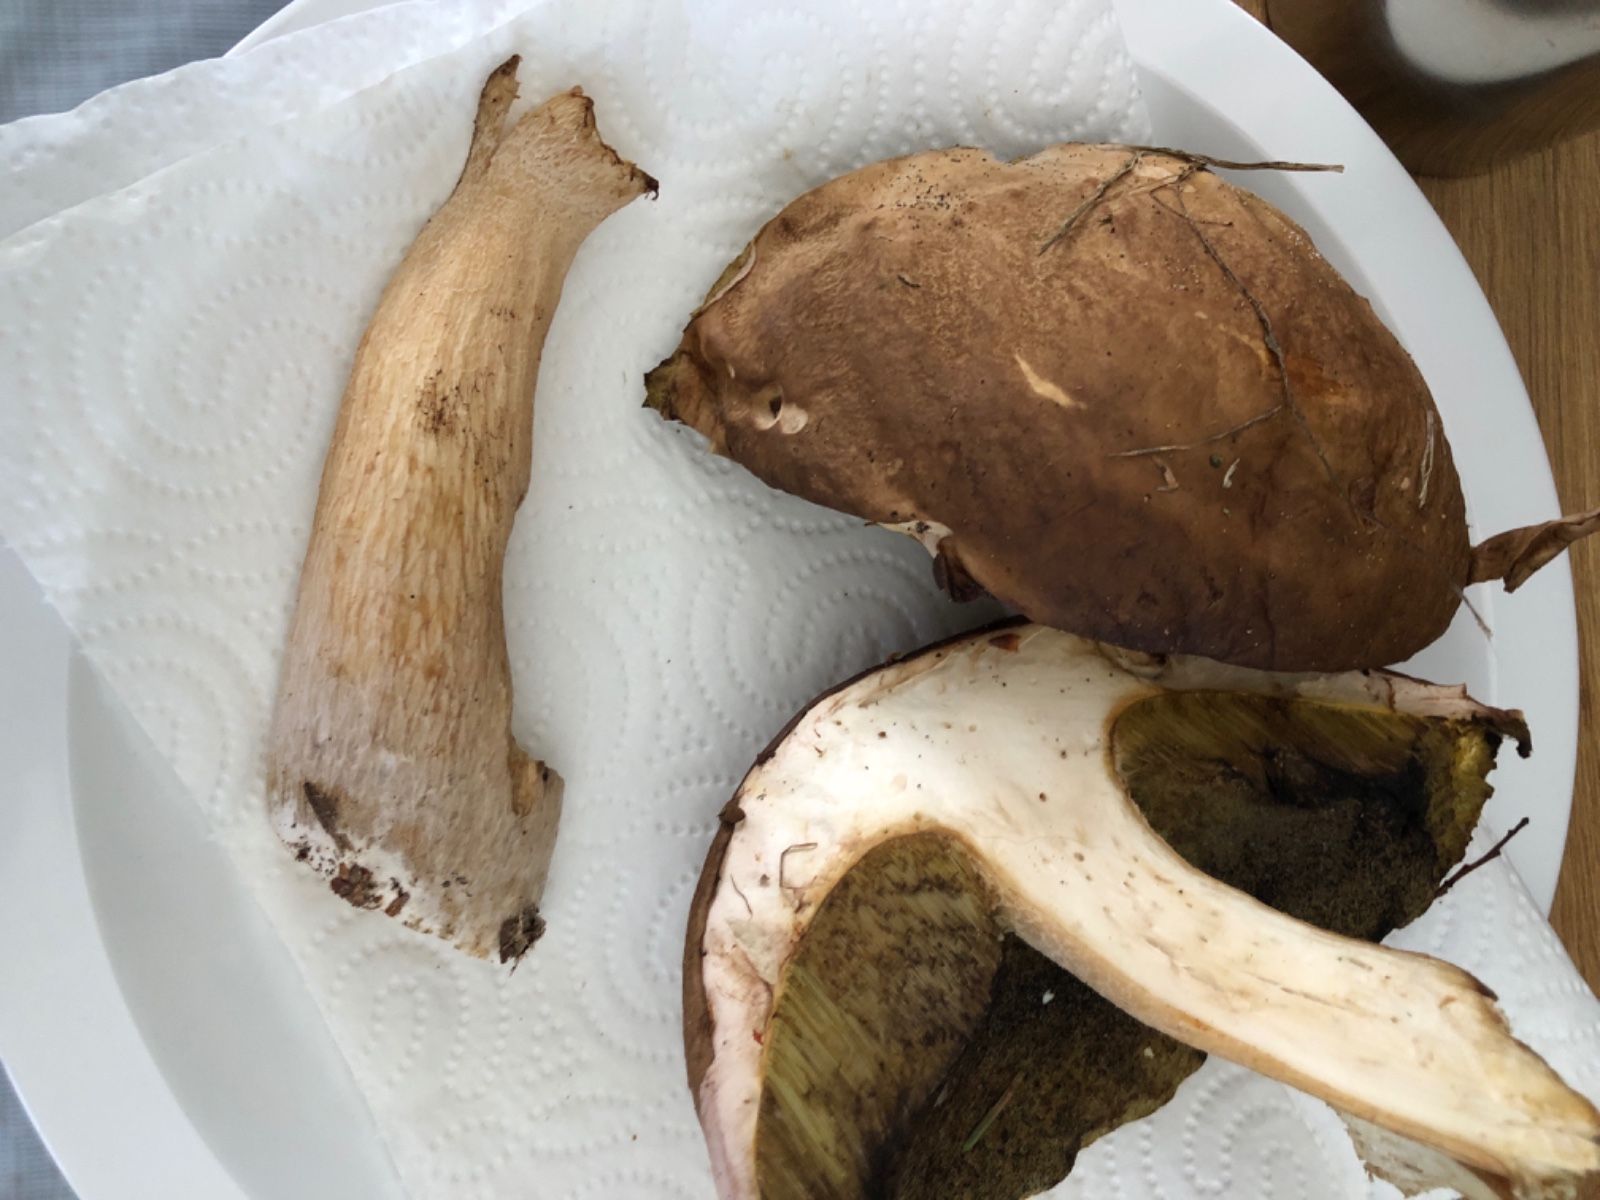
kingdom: Fungi
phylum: Basidiomycota
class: Agaricomycetes
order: Boletales
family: Boletaceae
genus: Boletus
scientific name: Boletus edulis
